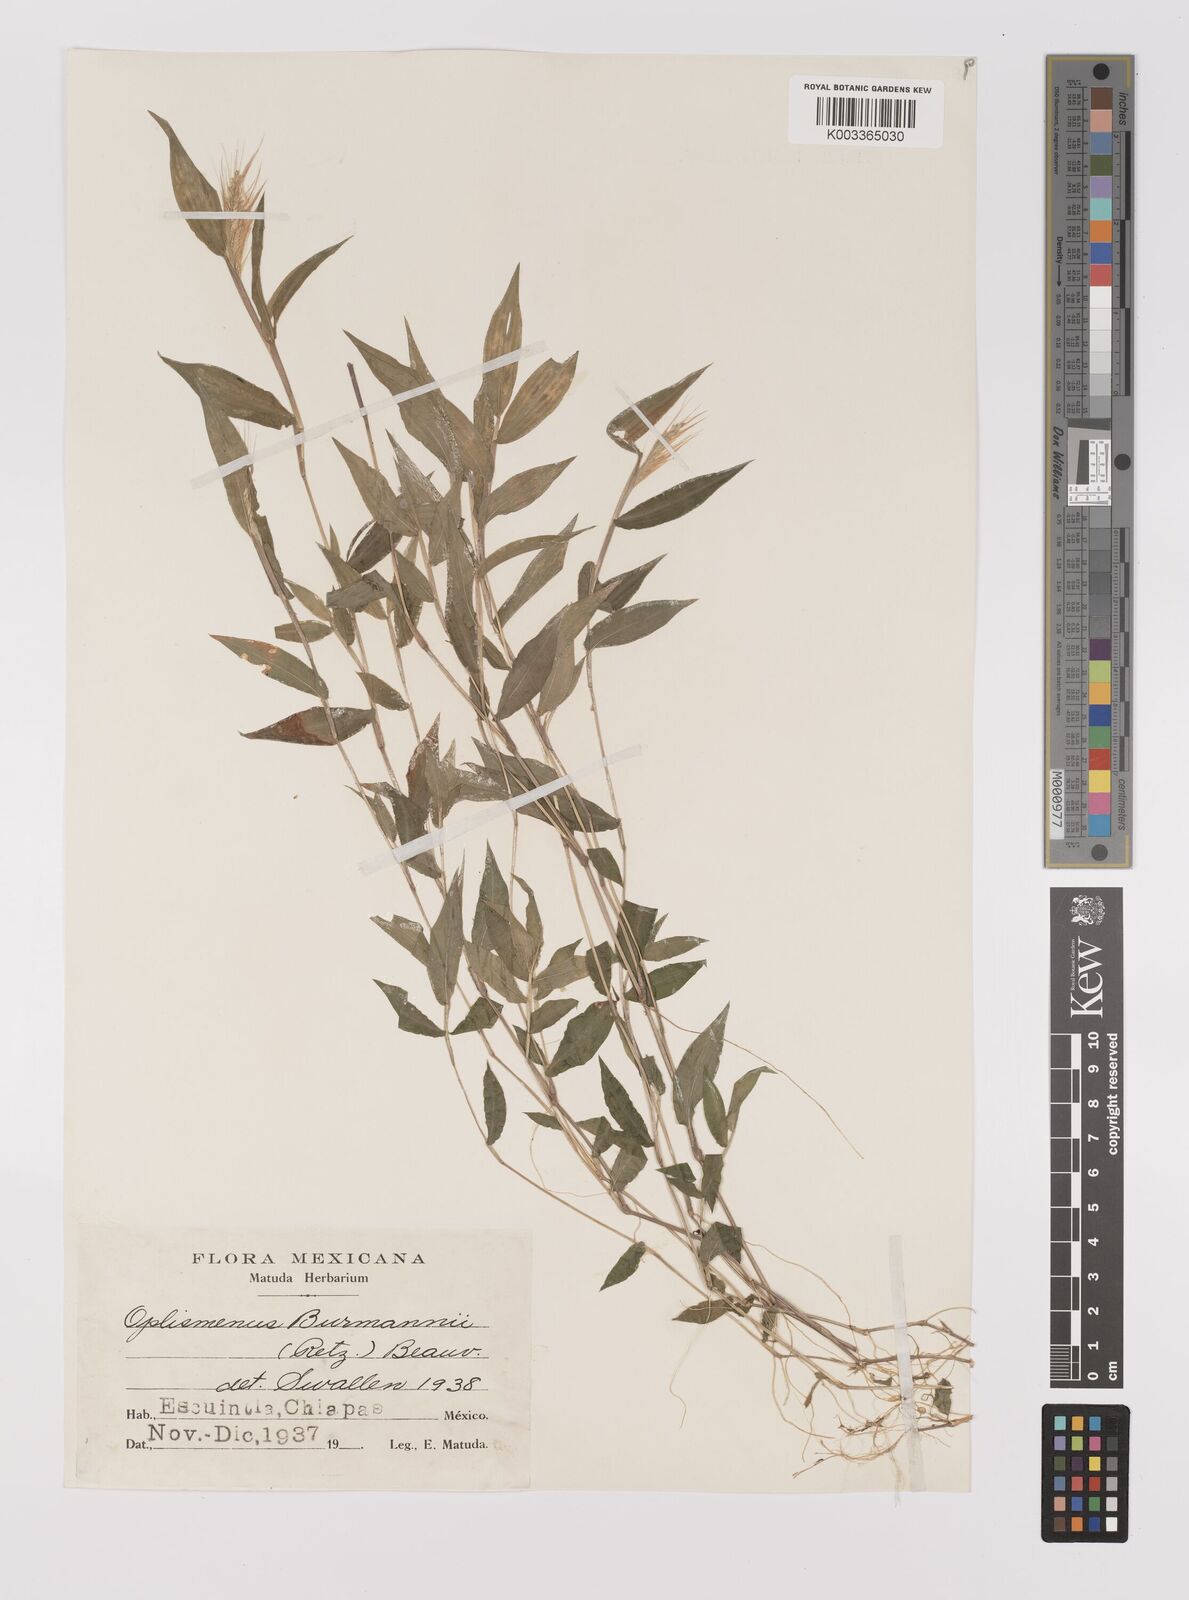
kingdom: Plantae
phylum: Tracheophyta
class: Liliopsida
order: Poales
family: Poaceae
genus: Oplismenus
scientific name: Oplismenus burmanni
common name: Burmann's basketgrass
